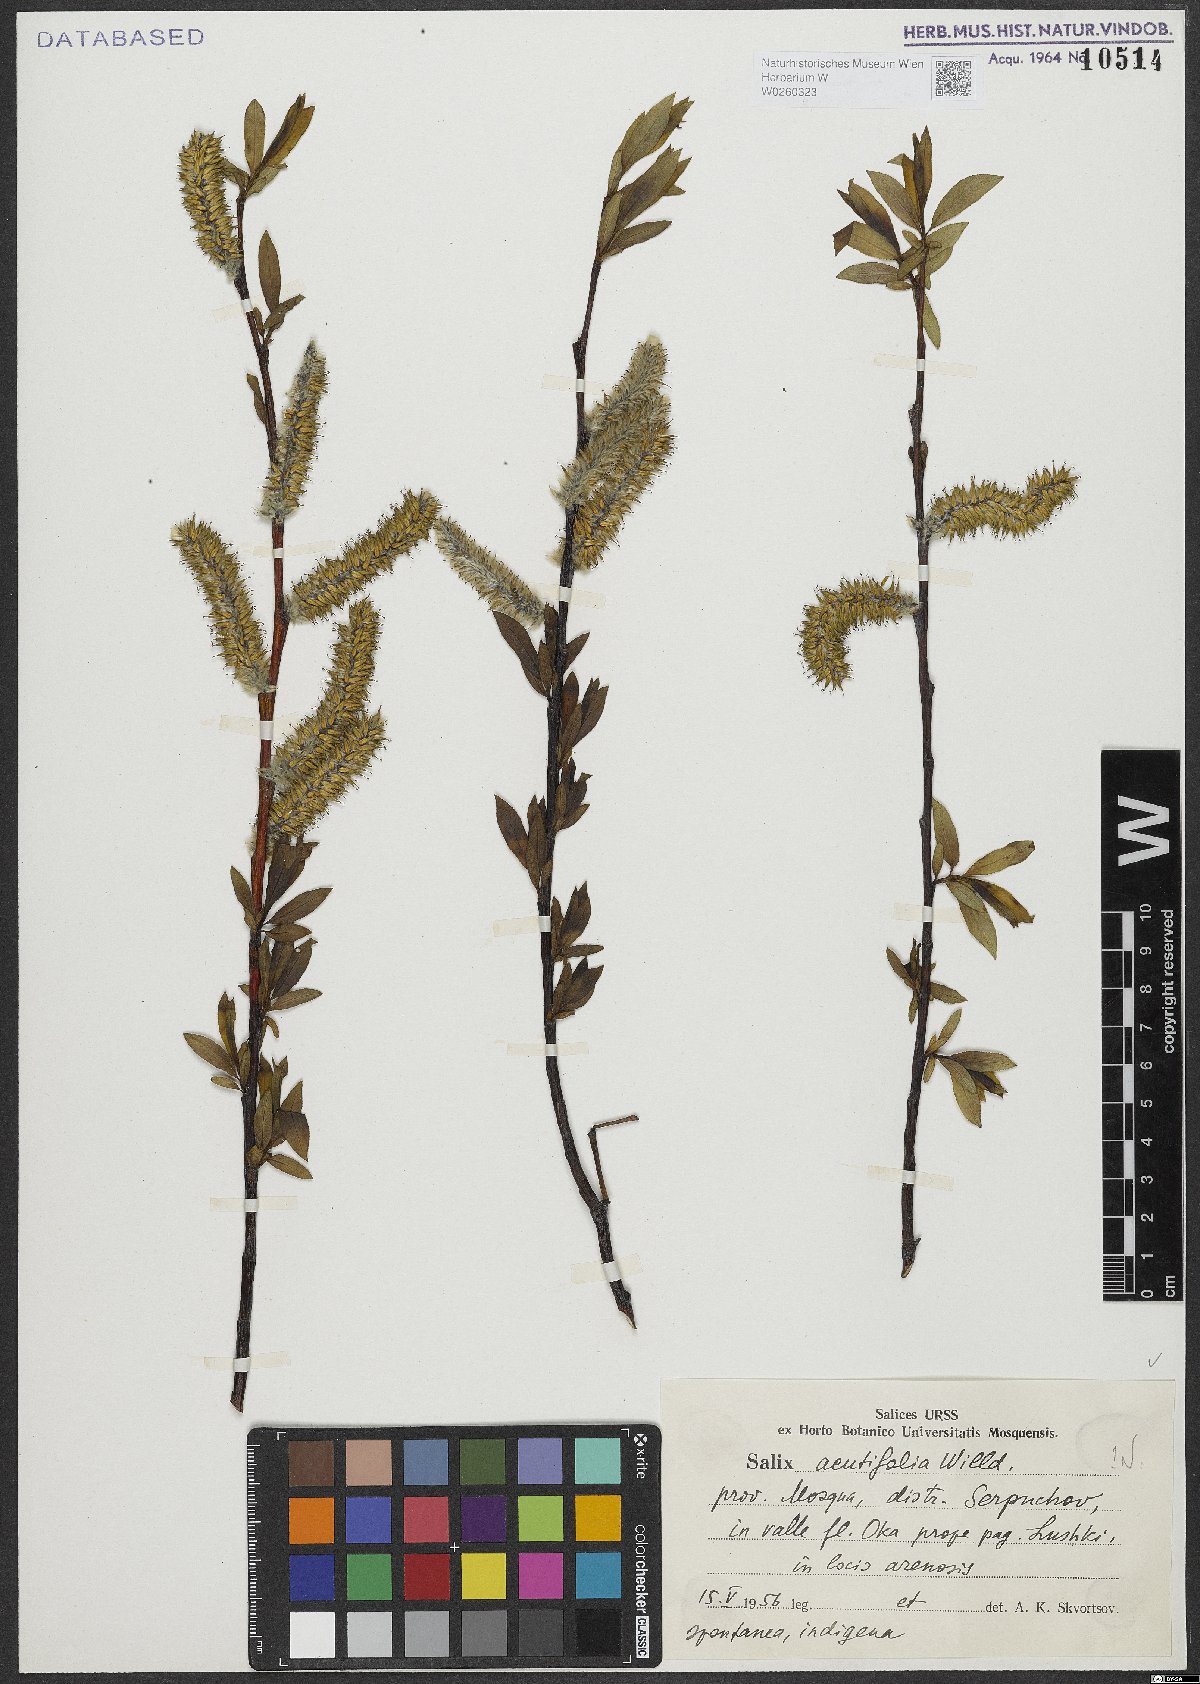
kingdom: Plantae
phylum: Tracheophyta
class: Magnoliopsida
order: Malpighiales
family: Salicaceae
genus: Salix
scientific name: Salix acutifolia
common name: Siberian violet-willow
